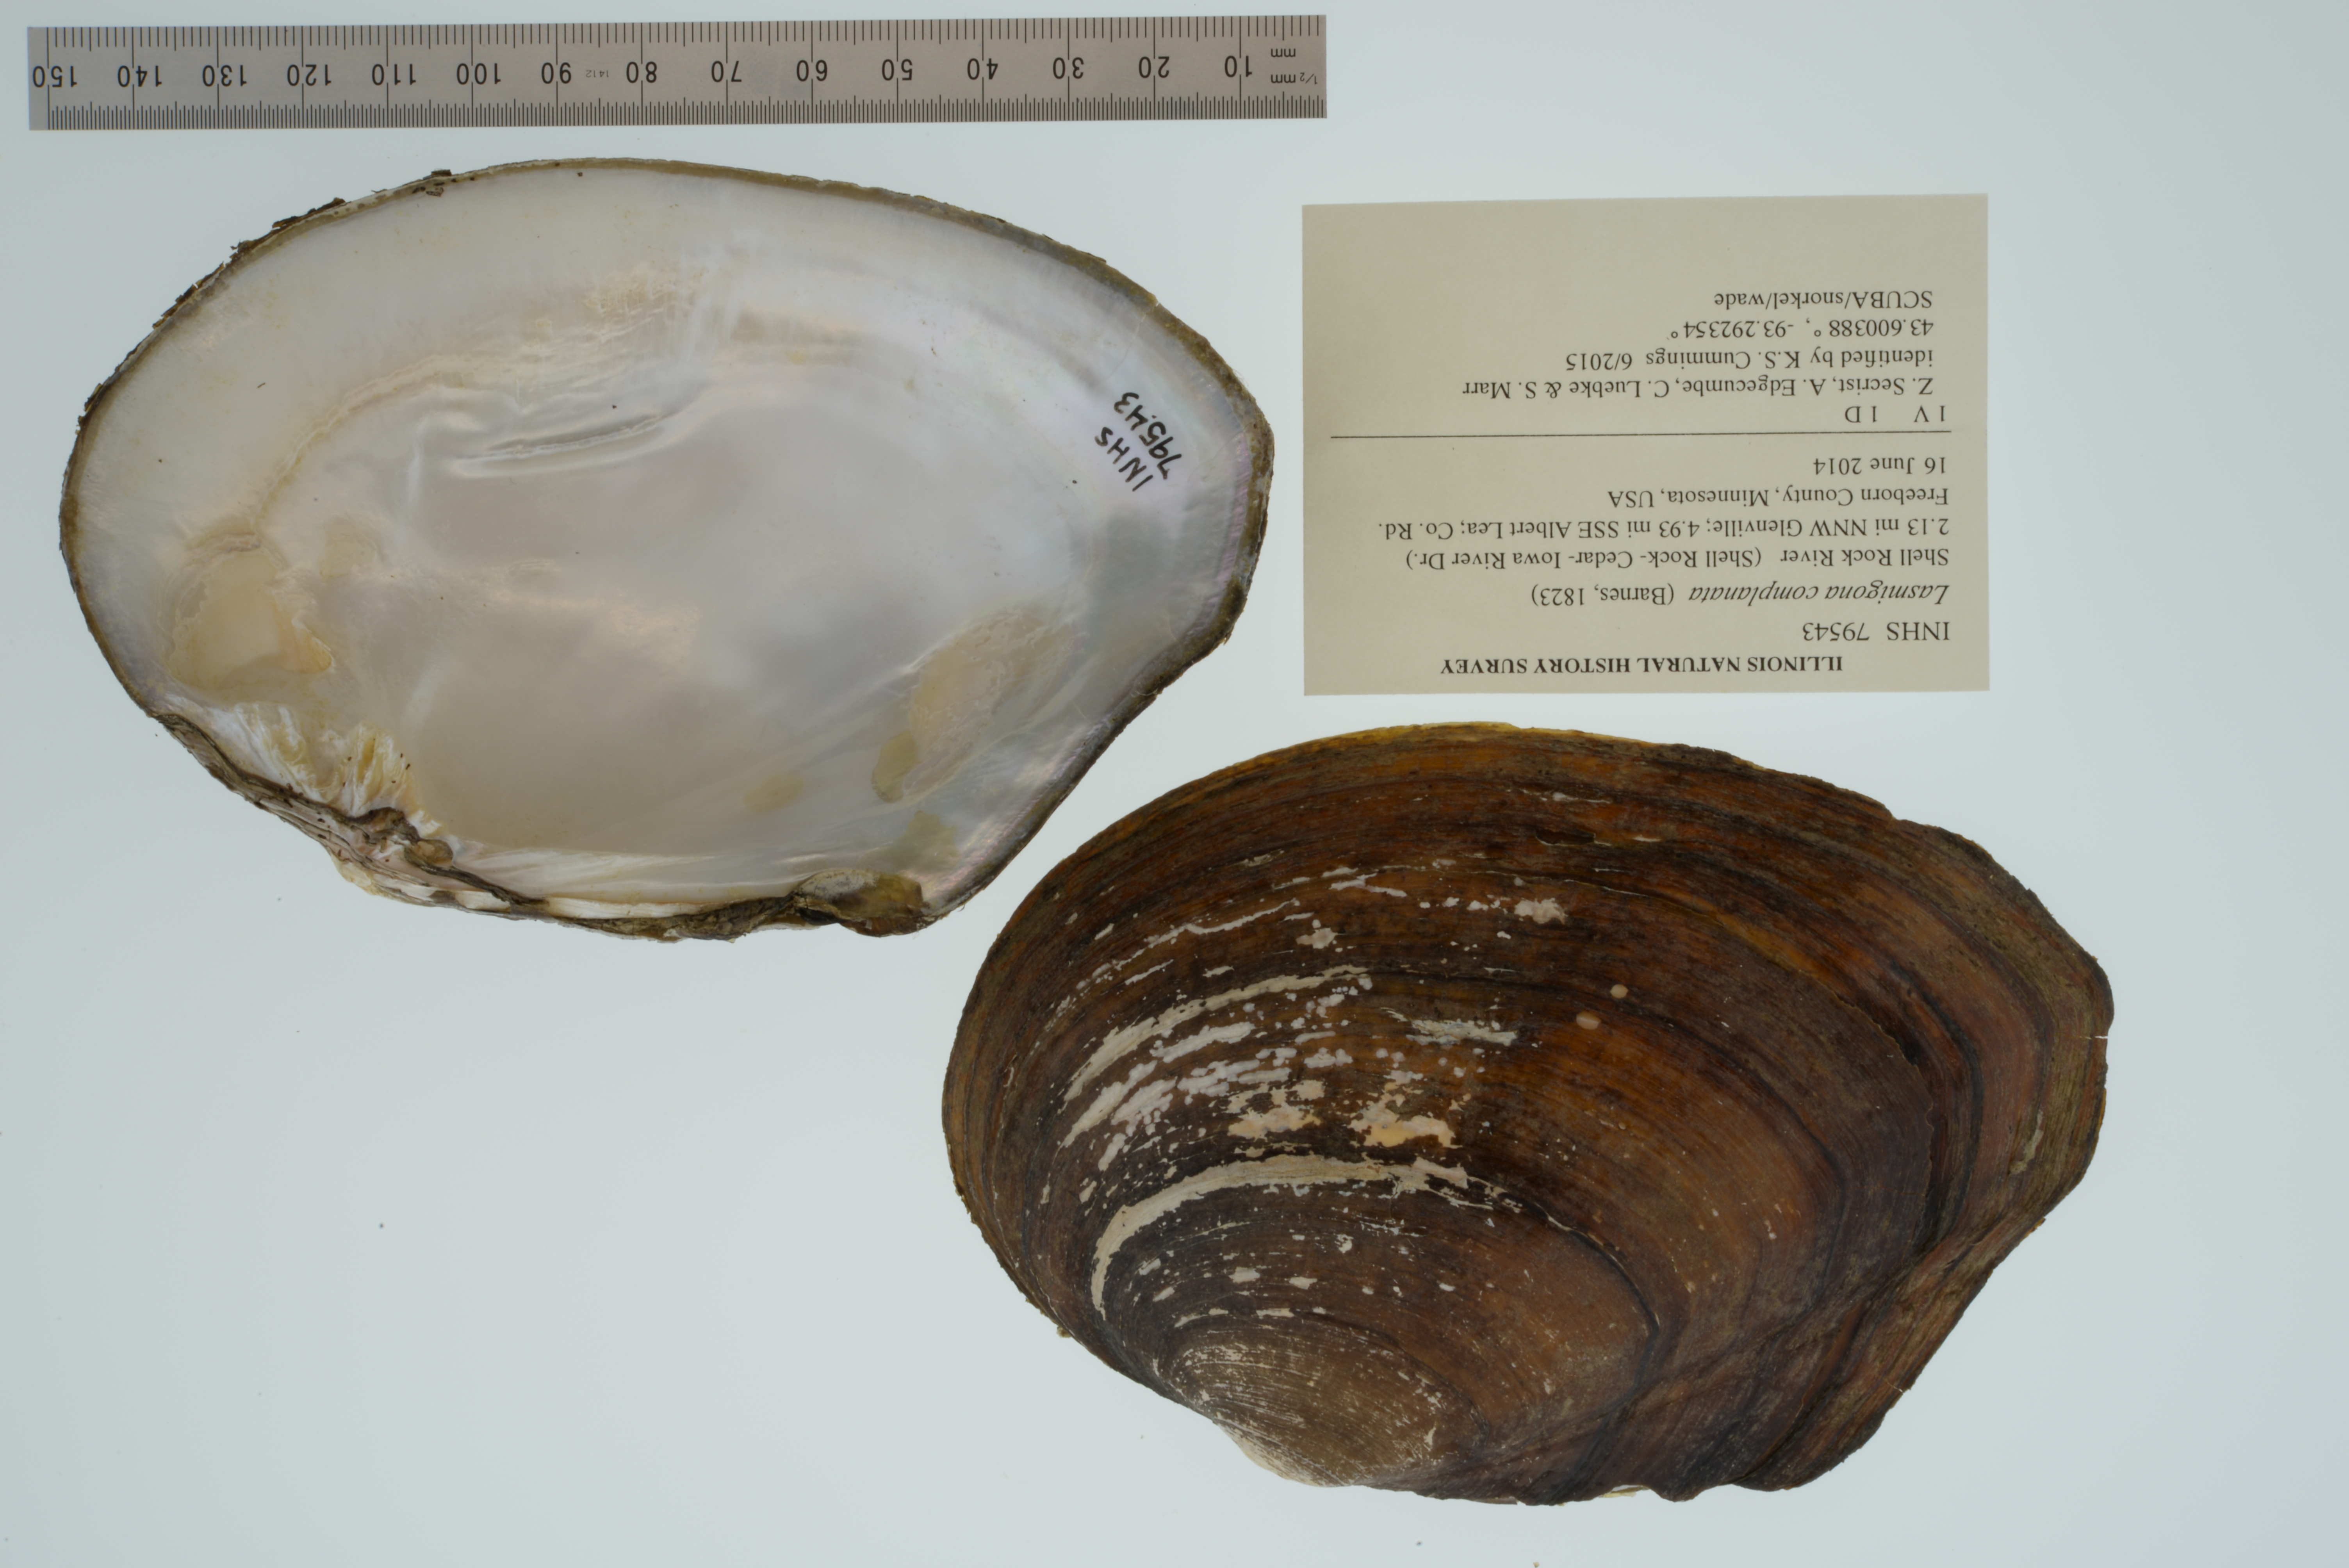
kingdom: Animalia
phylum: Mollusca
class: Bivalvia
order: Unionida
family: Unionidae
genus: Lasmigona
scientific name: Lasmigona complanata
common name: White heelsplitter
